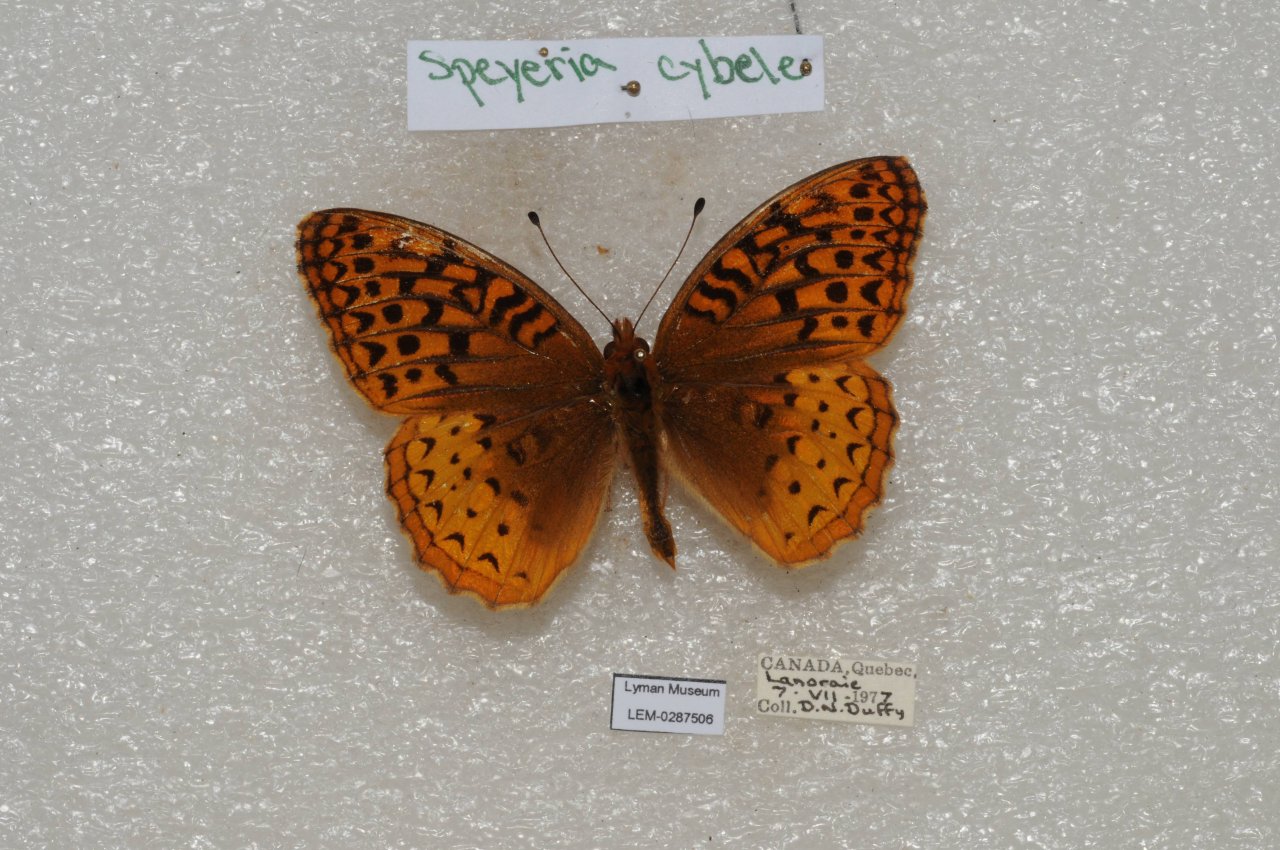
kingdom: Animalia
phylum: Arthropoda
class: Insecta
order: Lepidoptera
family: Nymphalidae
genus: Speyeria
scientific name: Speyeria cybele
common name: Great Spangled Fritillary
